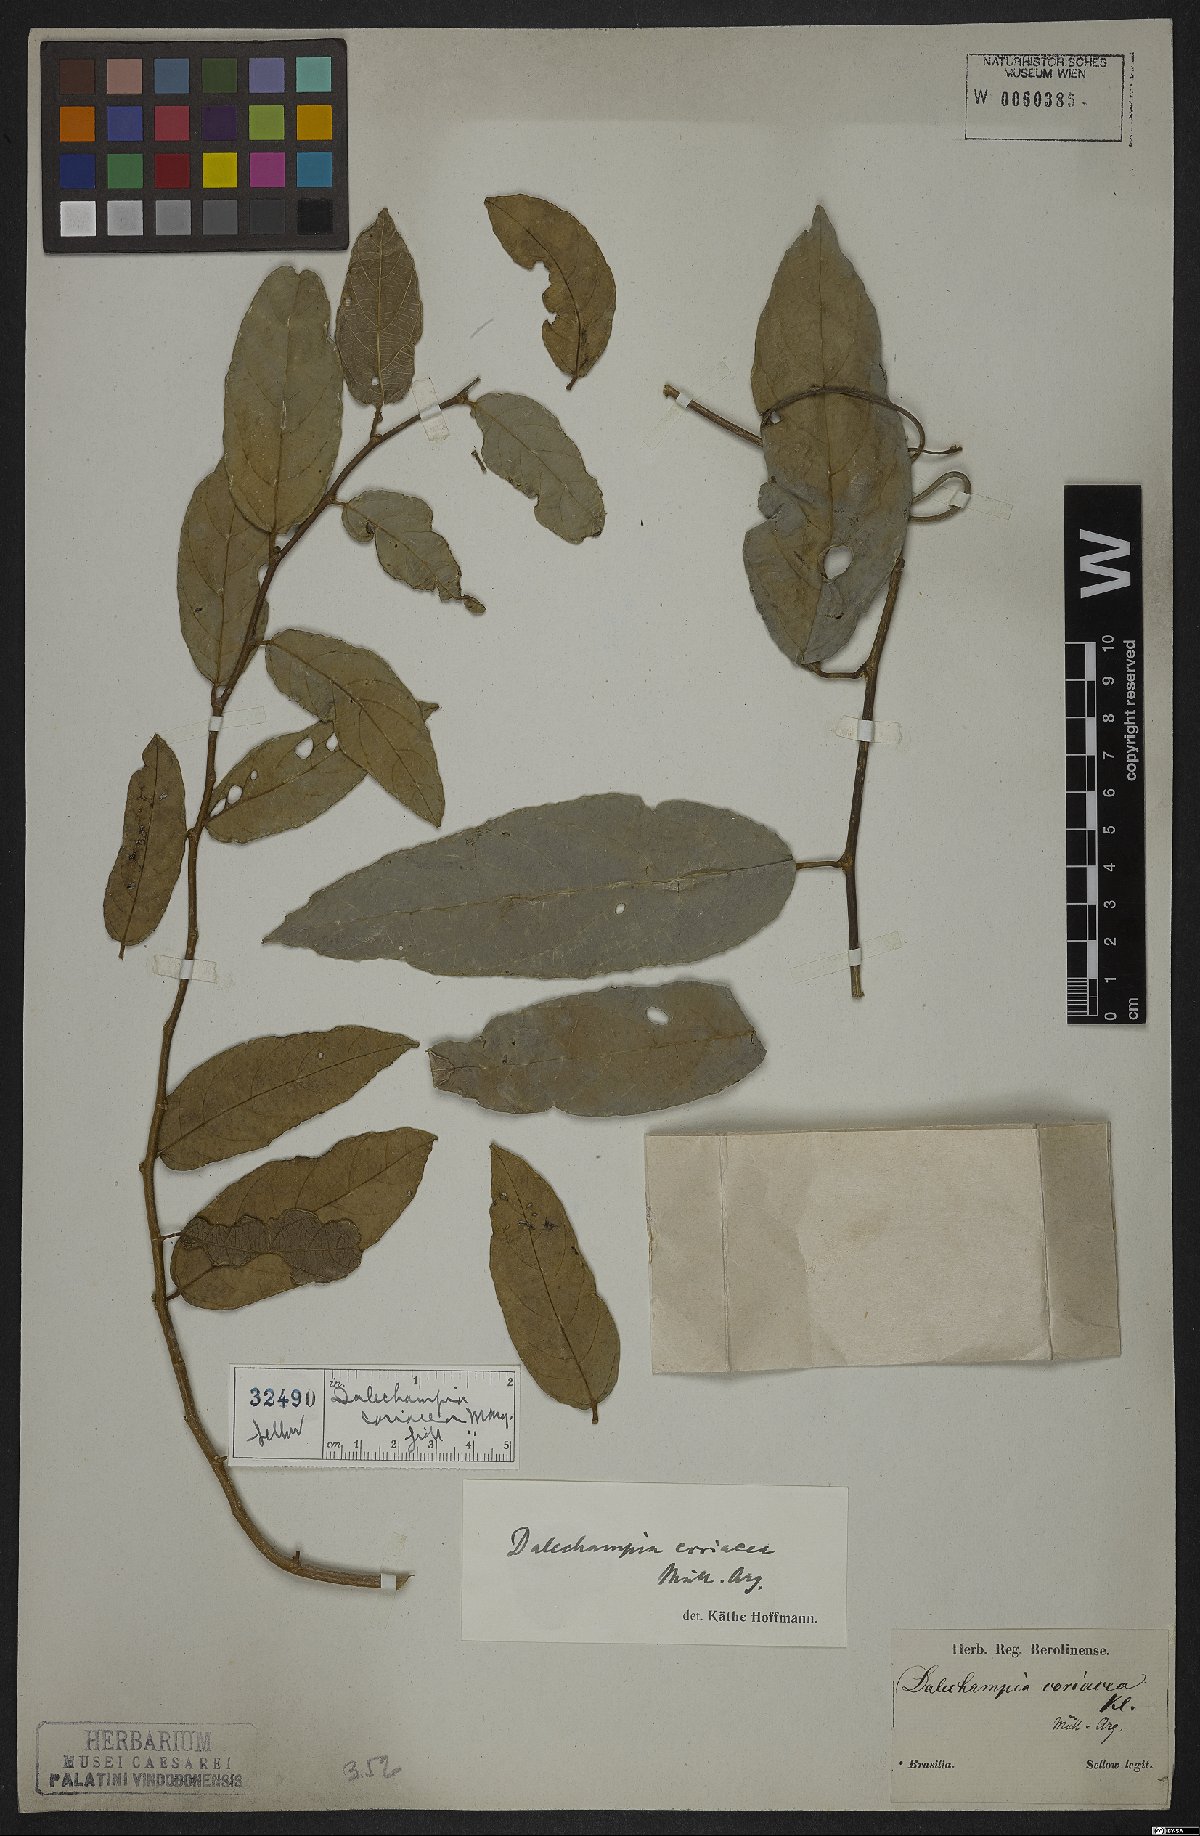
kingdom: Plantae
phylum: Tracheophyta
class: Magnoliopsida
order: Malpighiales
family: Euphorbiaceae
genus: Dalechampia
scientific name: Dalechampia coriacea
